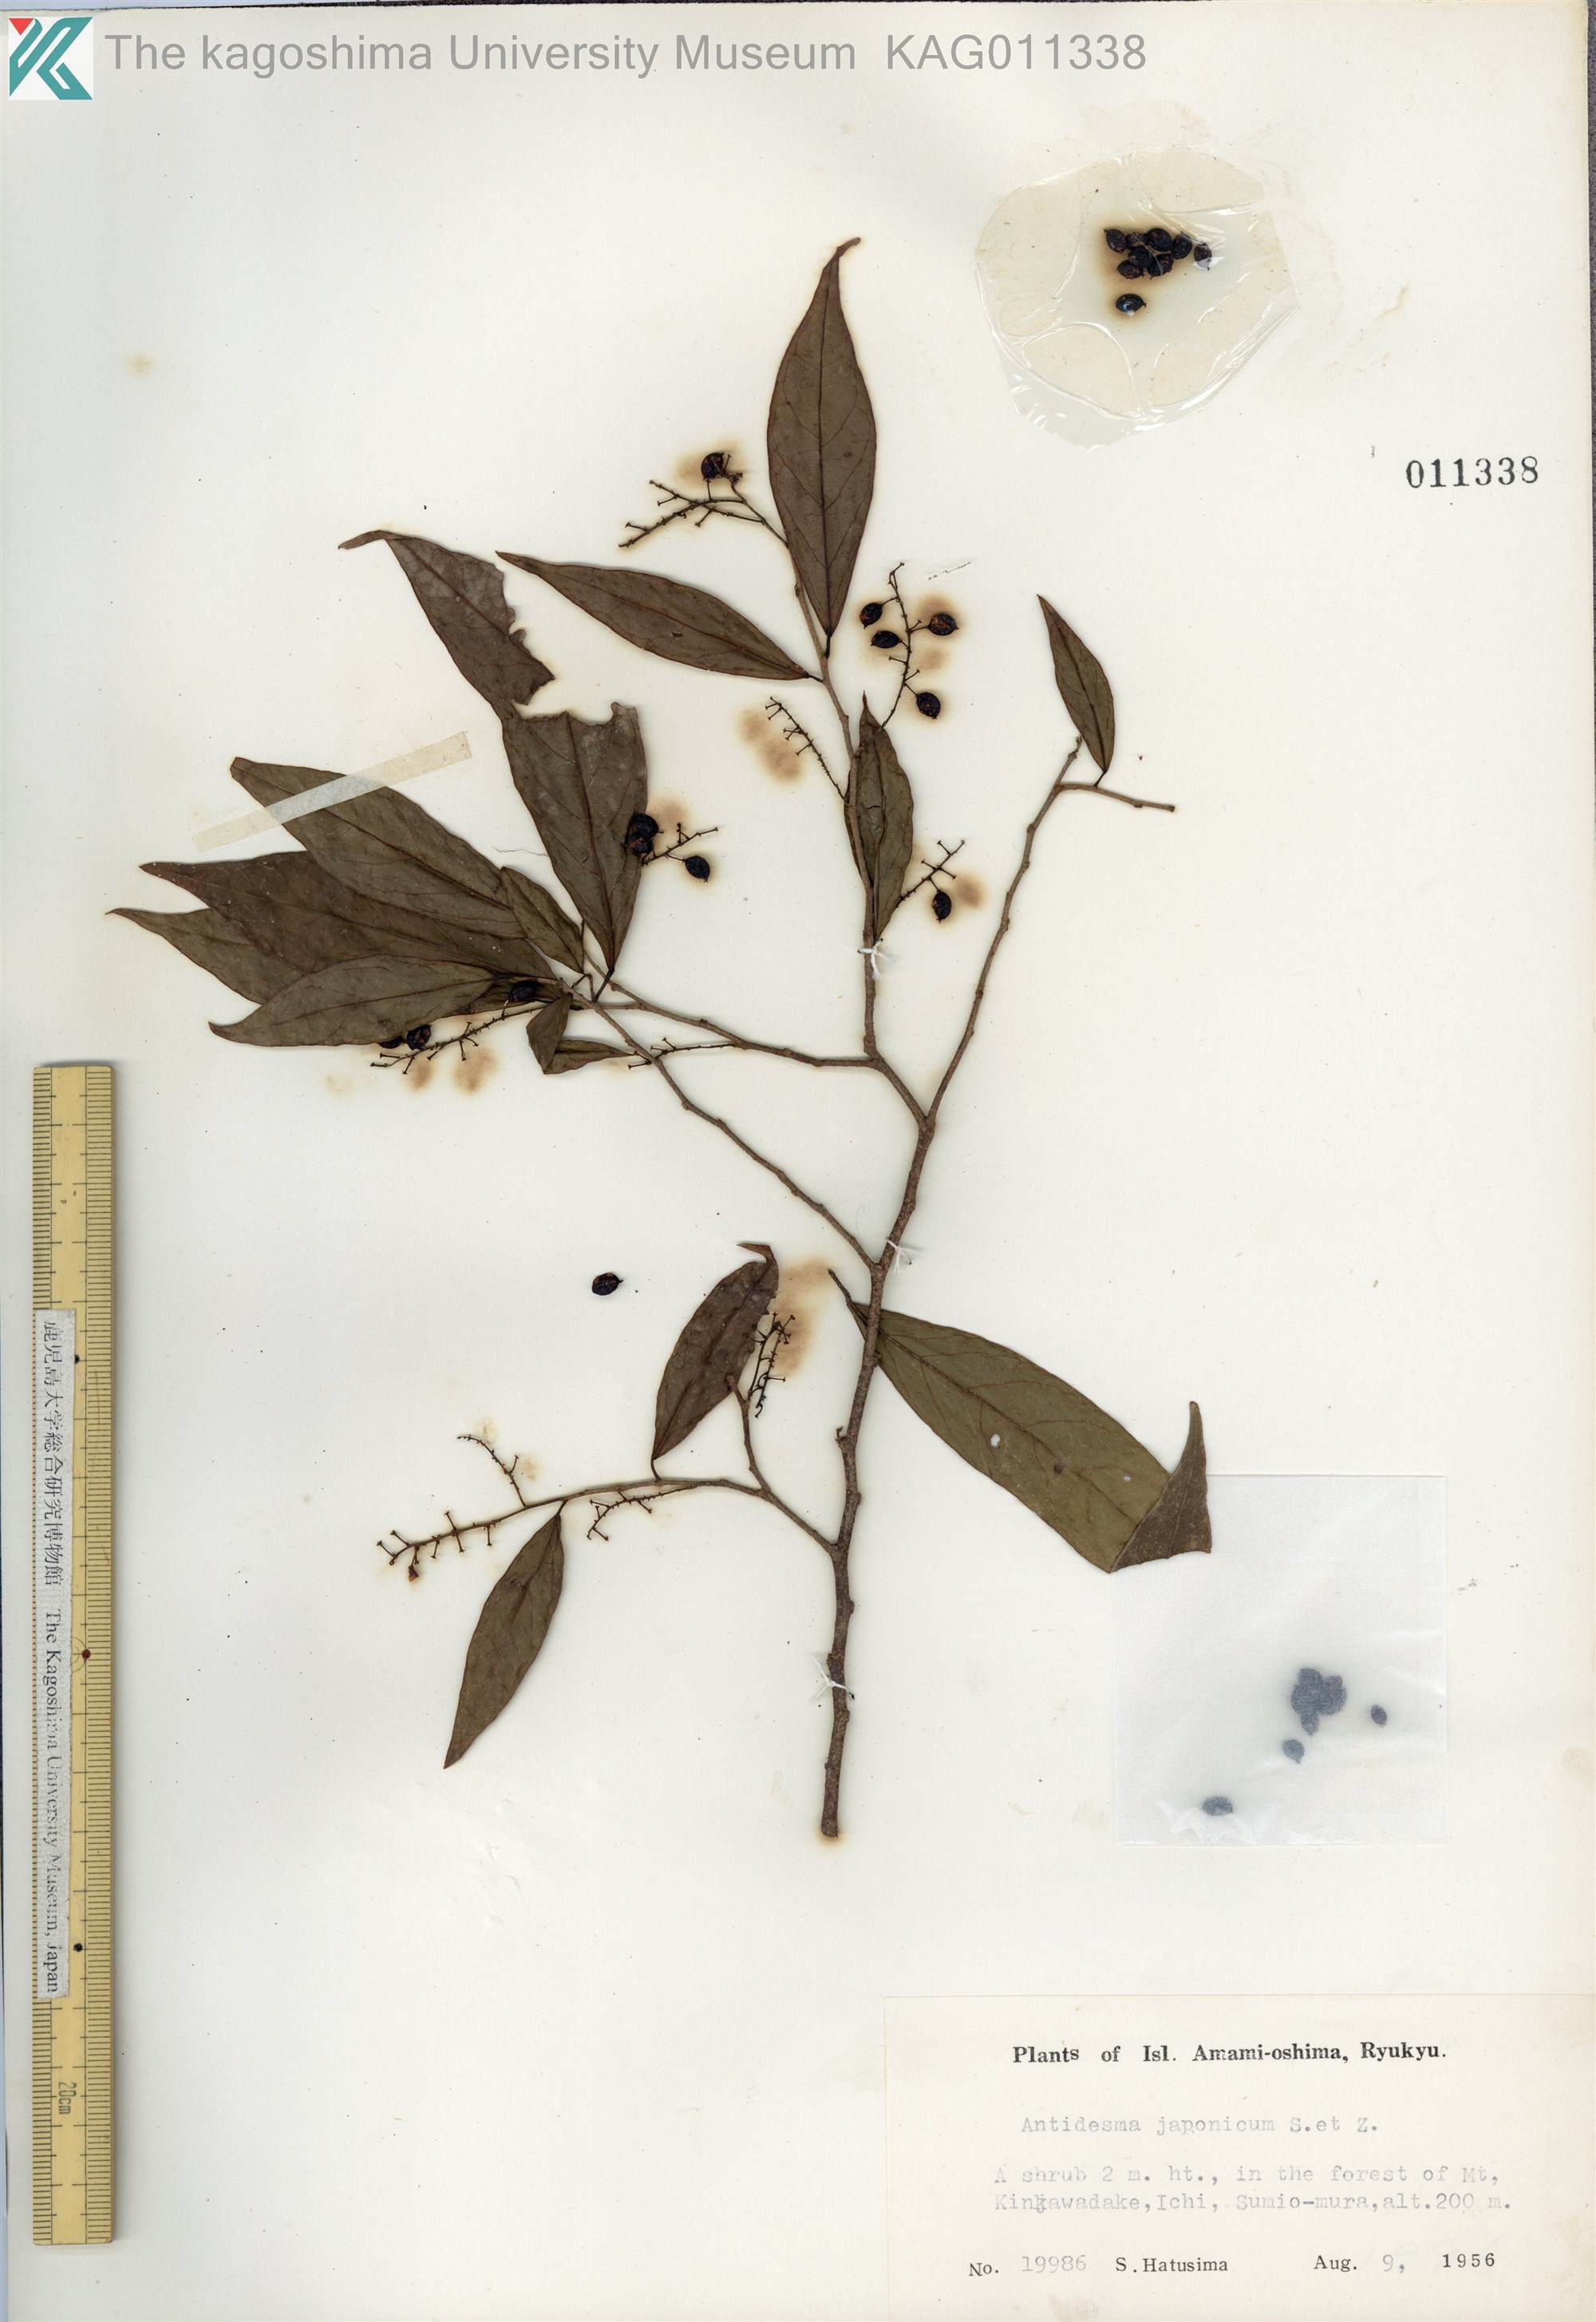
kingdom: Plantae
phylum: Tracheophyta
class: Magnoliopsida
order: Malpighiales
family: Phyllanthaceae
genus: Antidesma
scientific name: Antidesma japonicum
